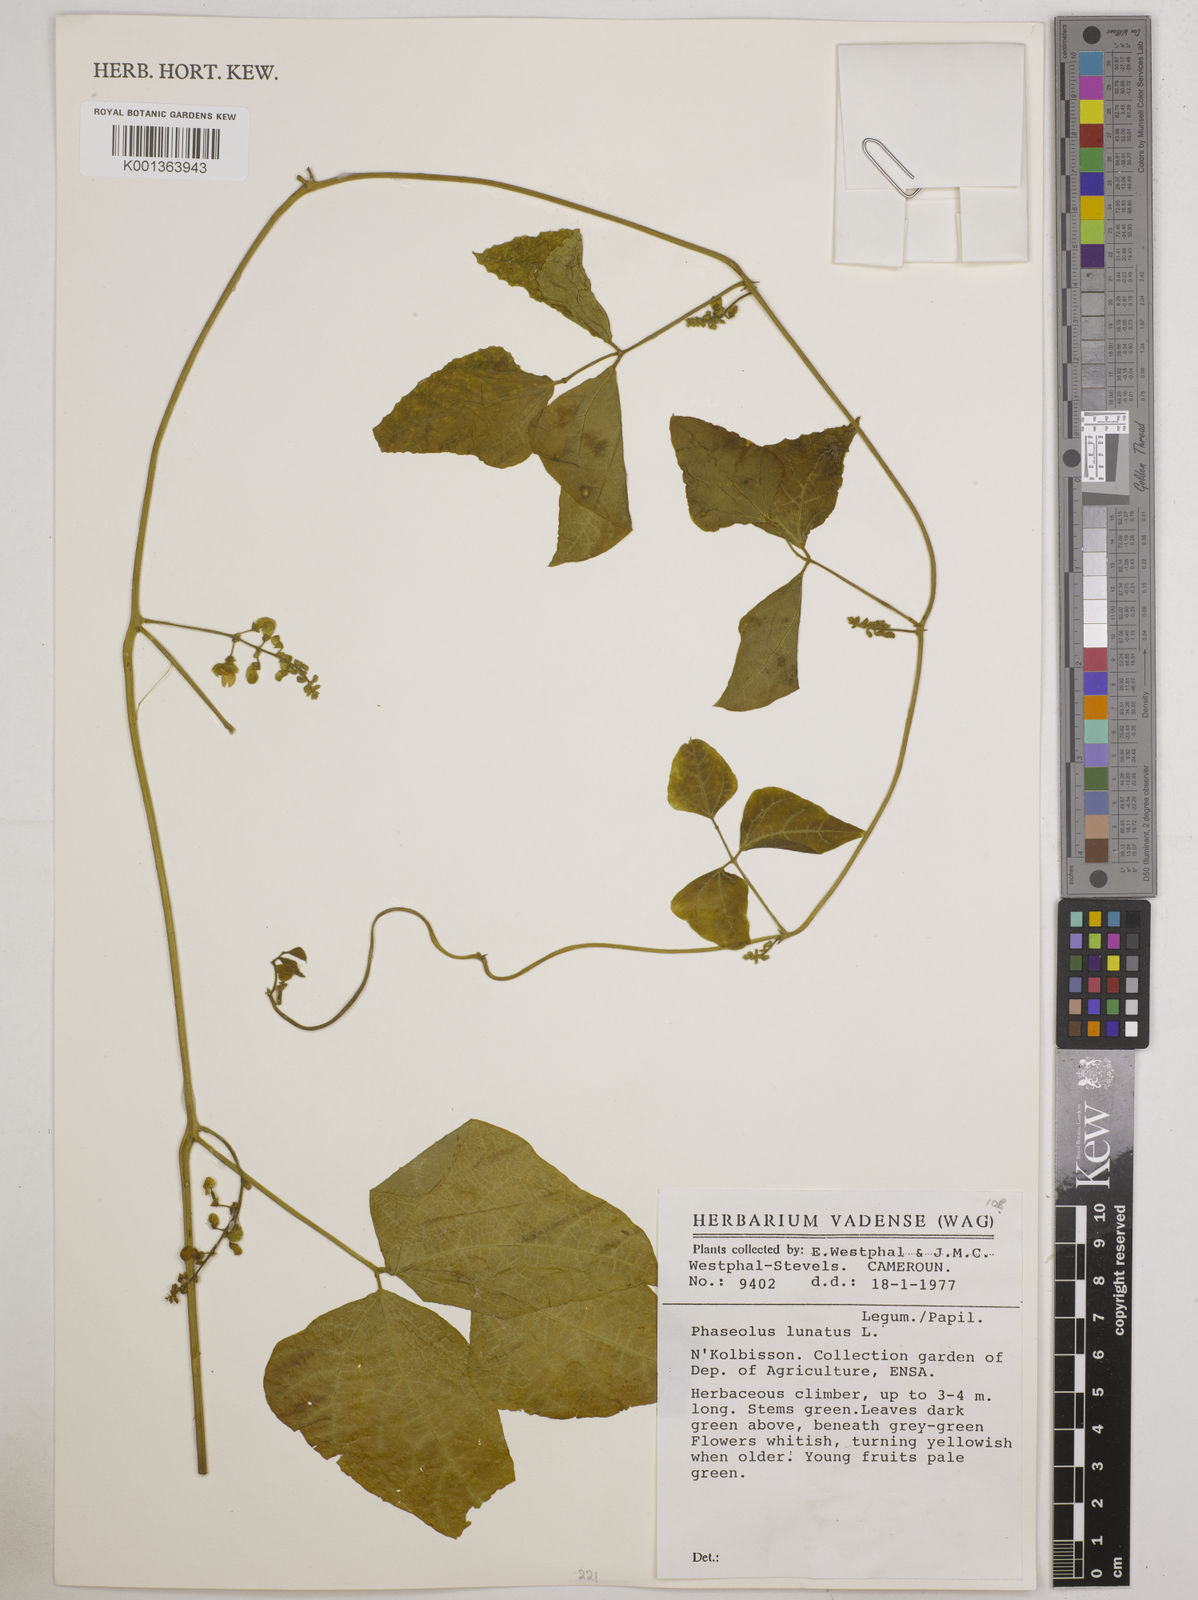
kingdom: Plantae
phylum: Tracheophyta
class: Magnoliopsida
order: Fabales
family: Fabaceae
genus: Phaseolus
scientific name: Phaseolus lunatus
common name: Sieva bean
